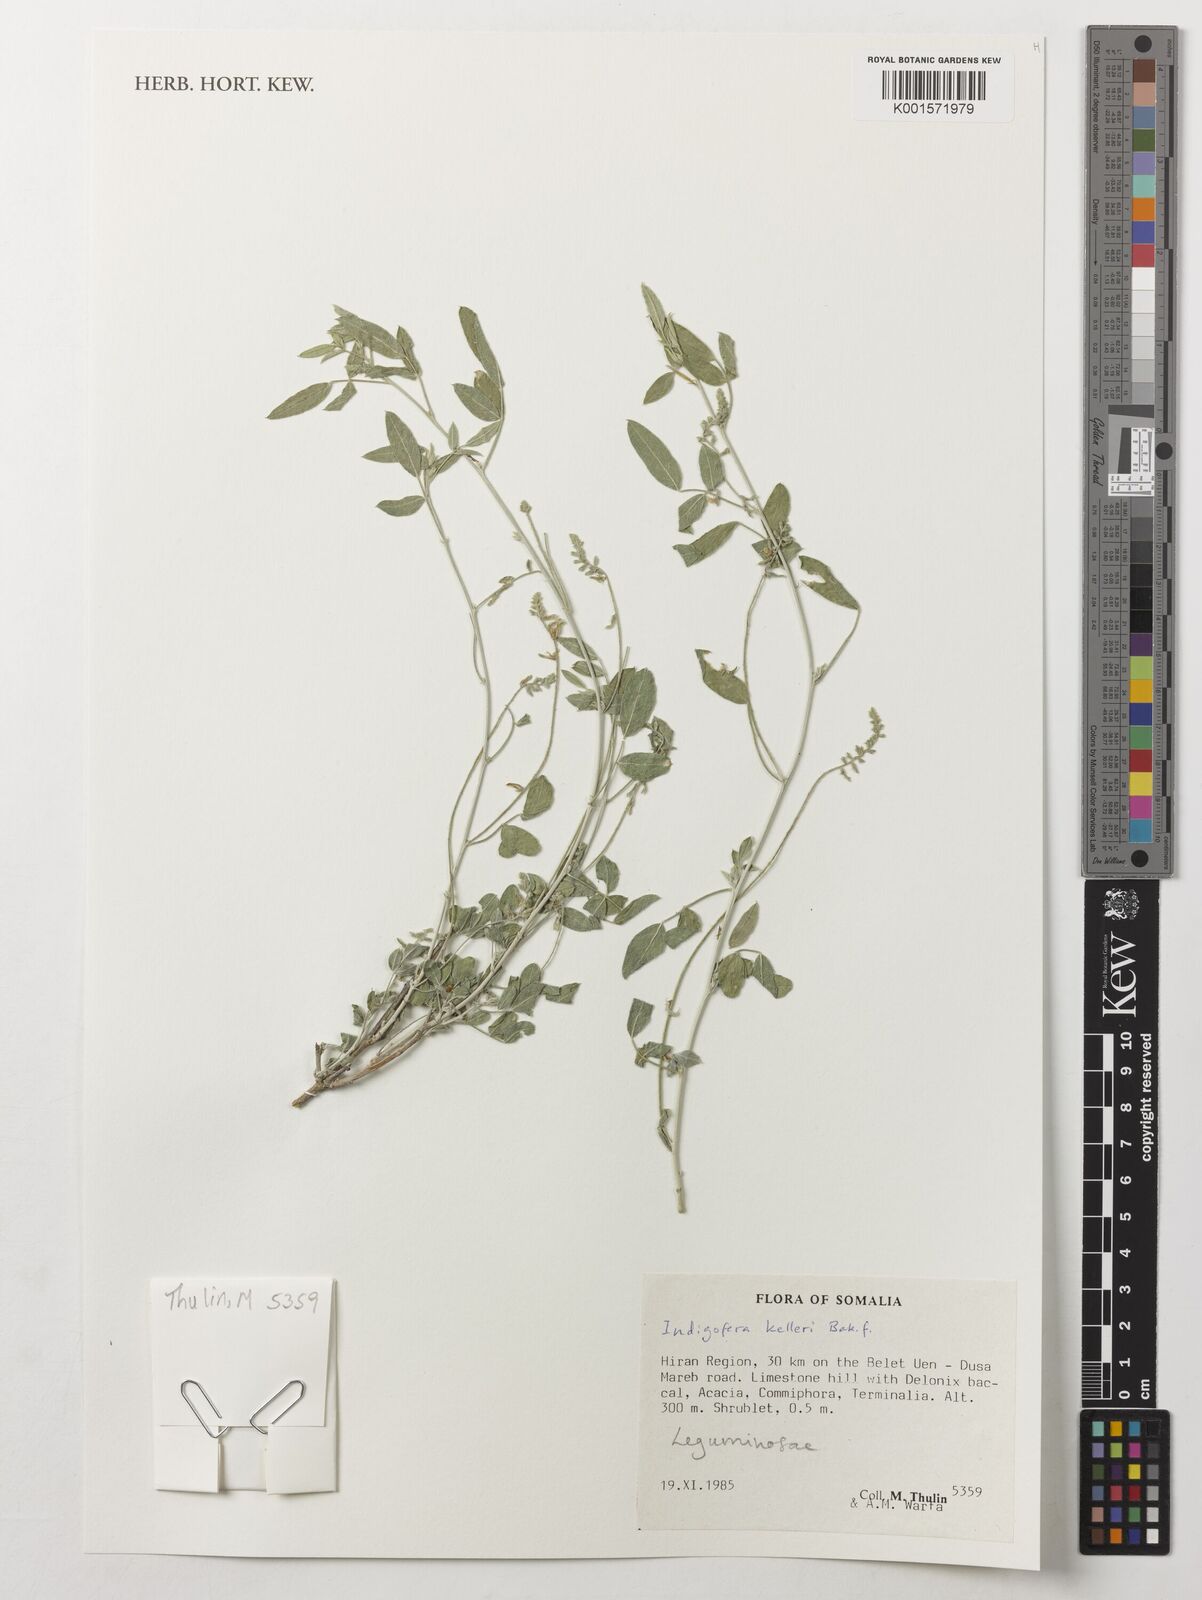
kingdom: Plantae
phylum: Tracheophyta
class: Magnoliopsida
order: Fabales
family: Fabaceae
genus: Indigofera
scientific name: Indigofera kelleri
